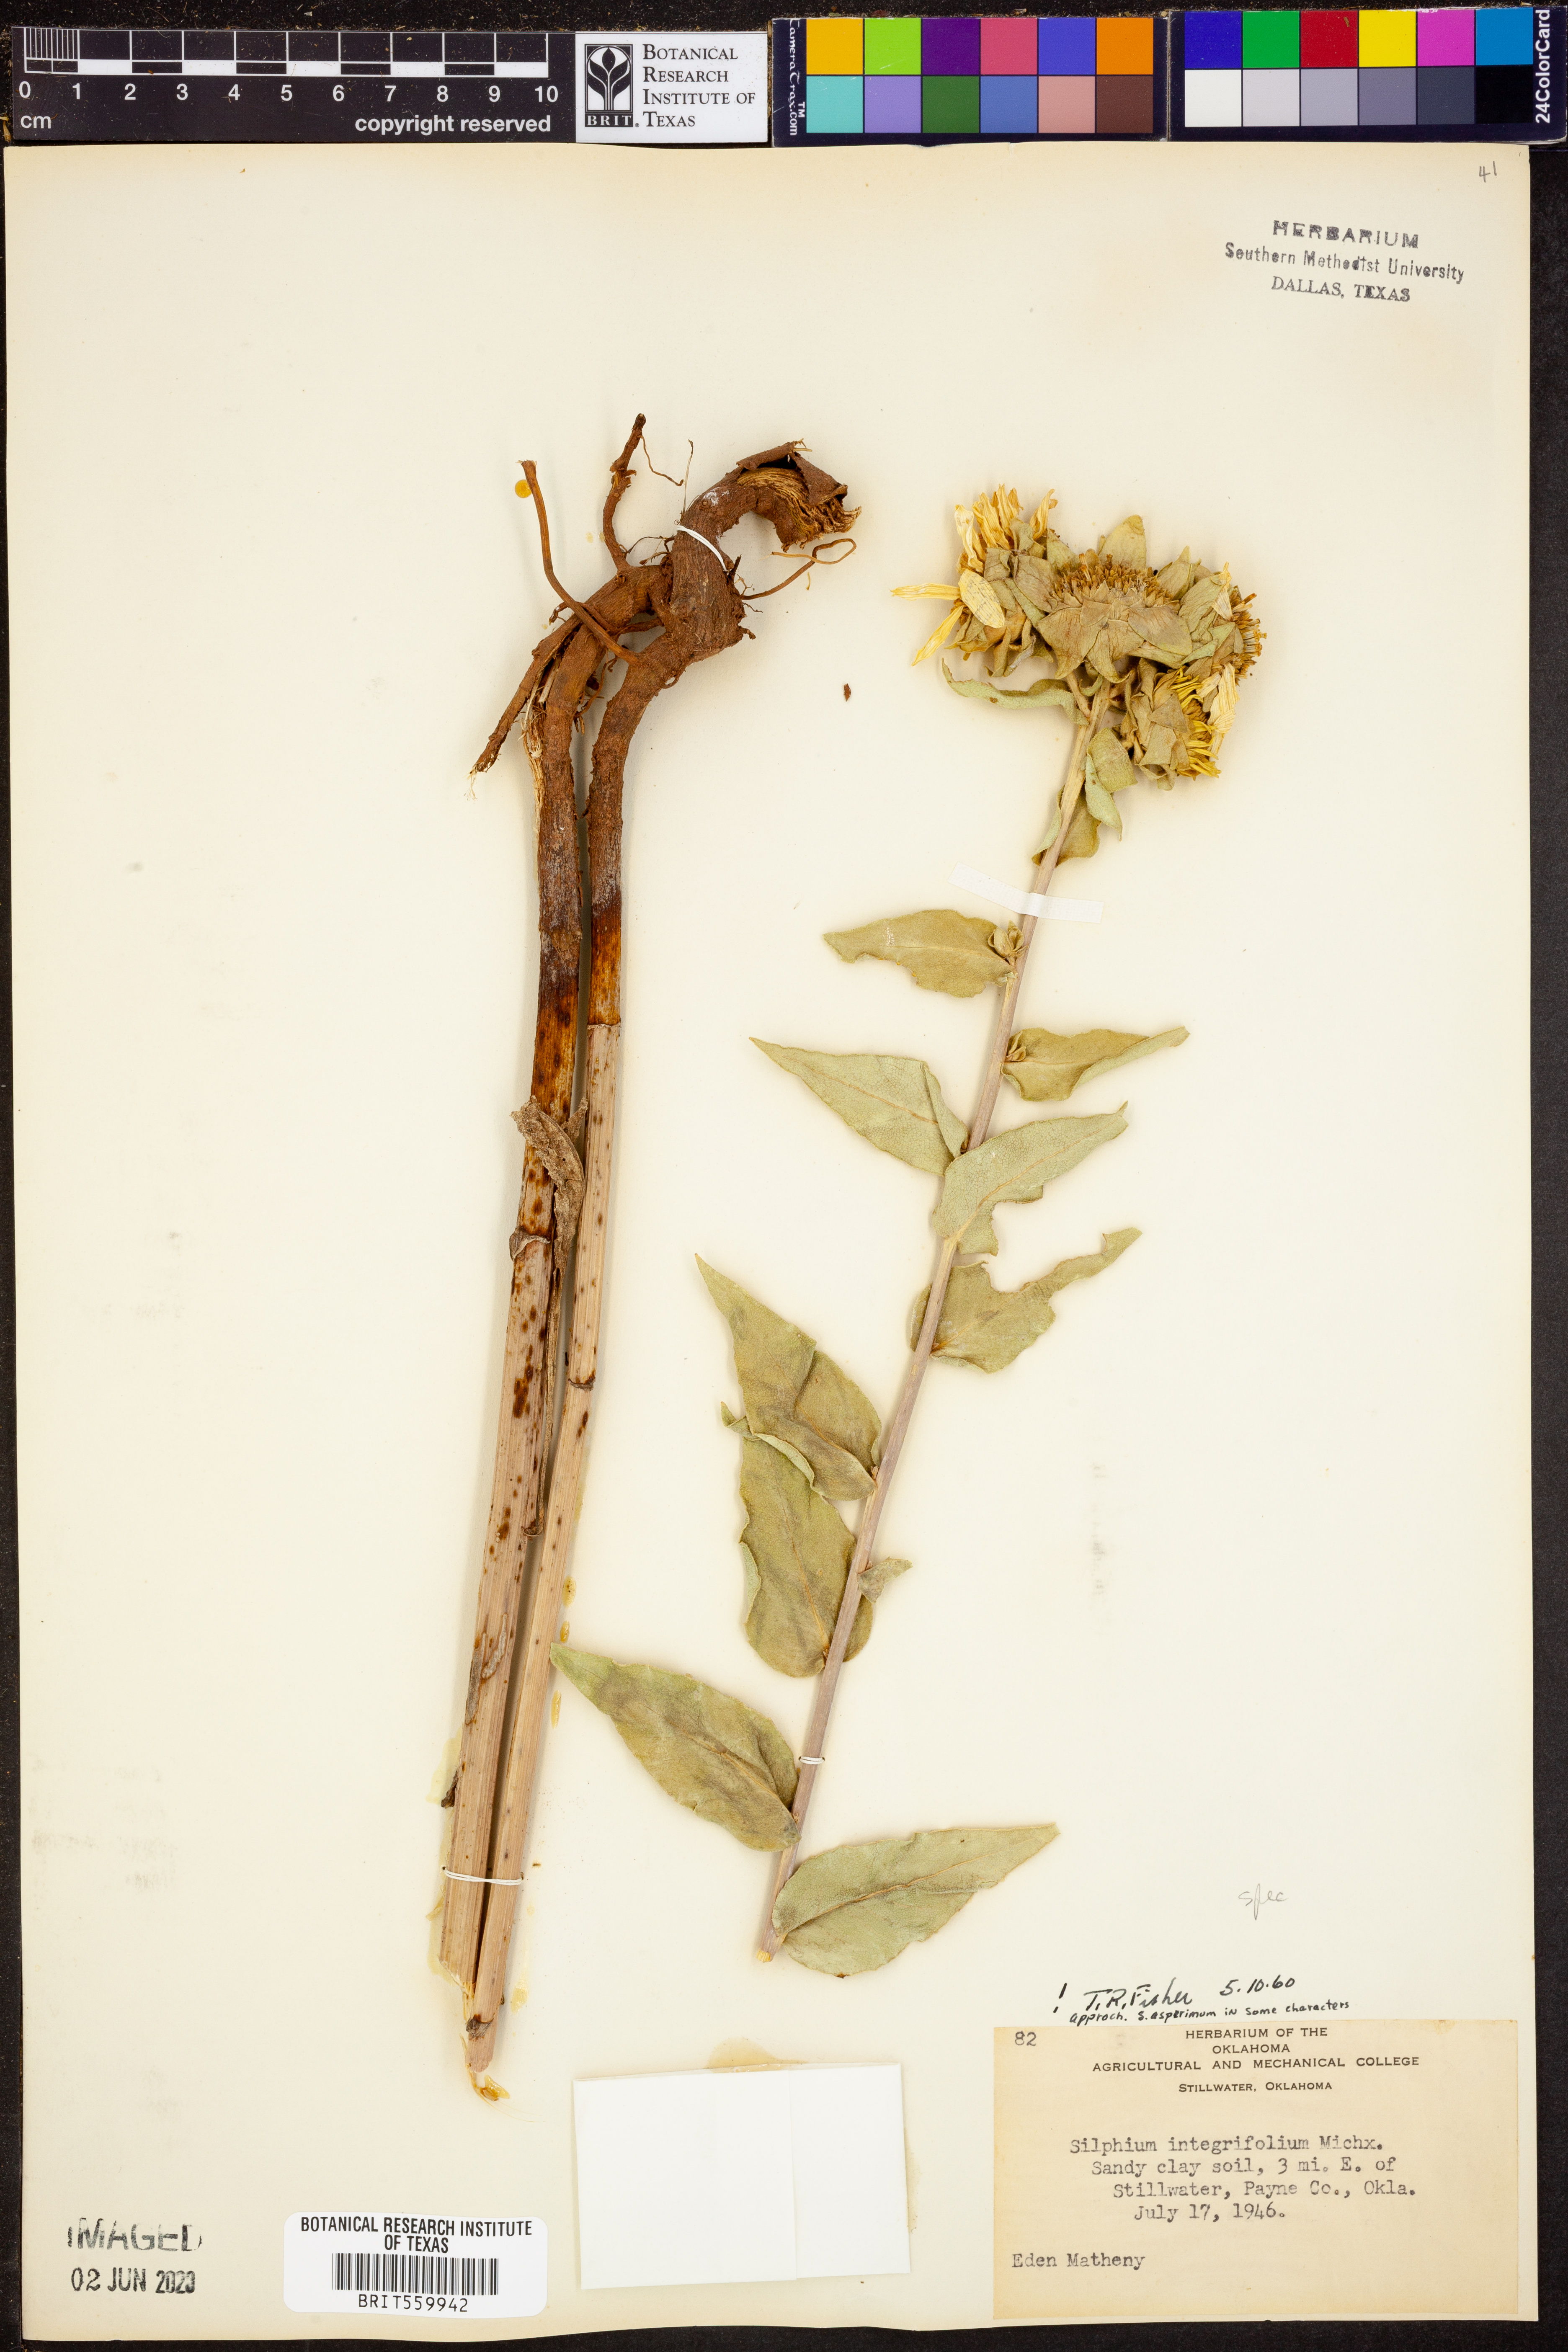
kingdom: Plantae
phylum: Tracheophyta
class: Magnoliopsida
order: Asterales
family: Asteraceae
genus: Silphium
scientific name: Silphium integrifolium
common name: Whole-leaf rosinweed
